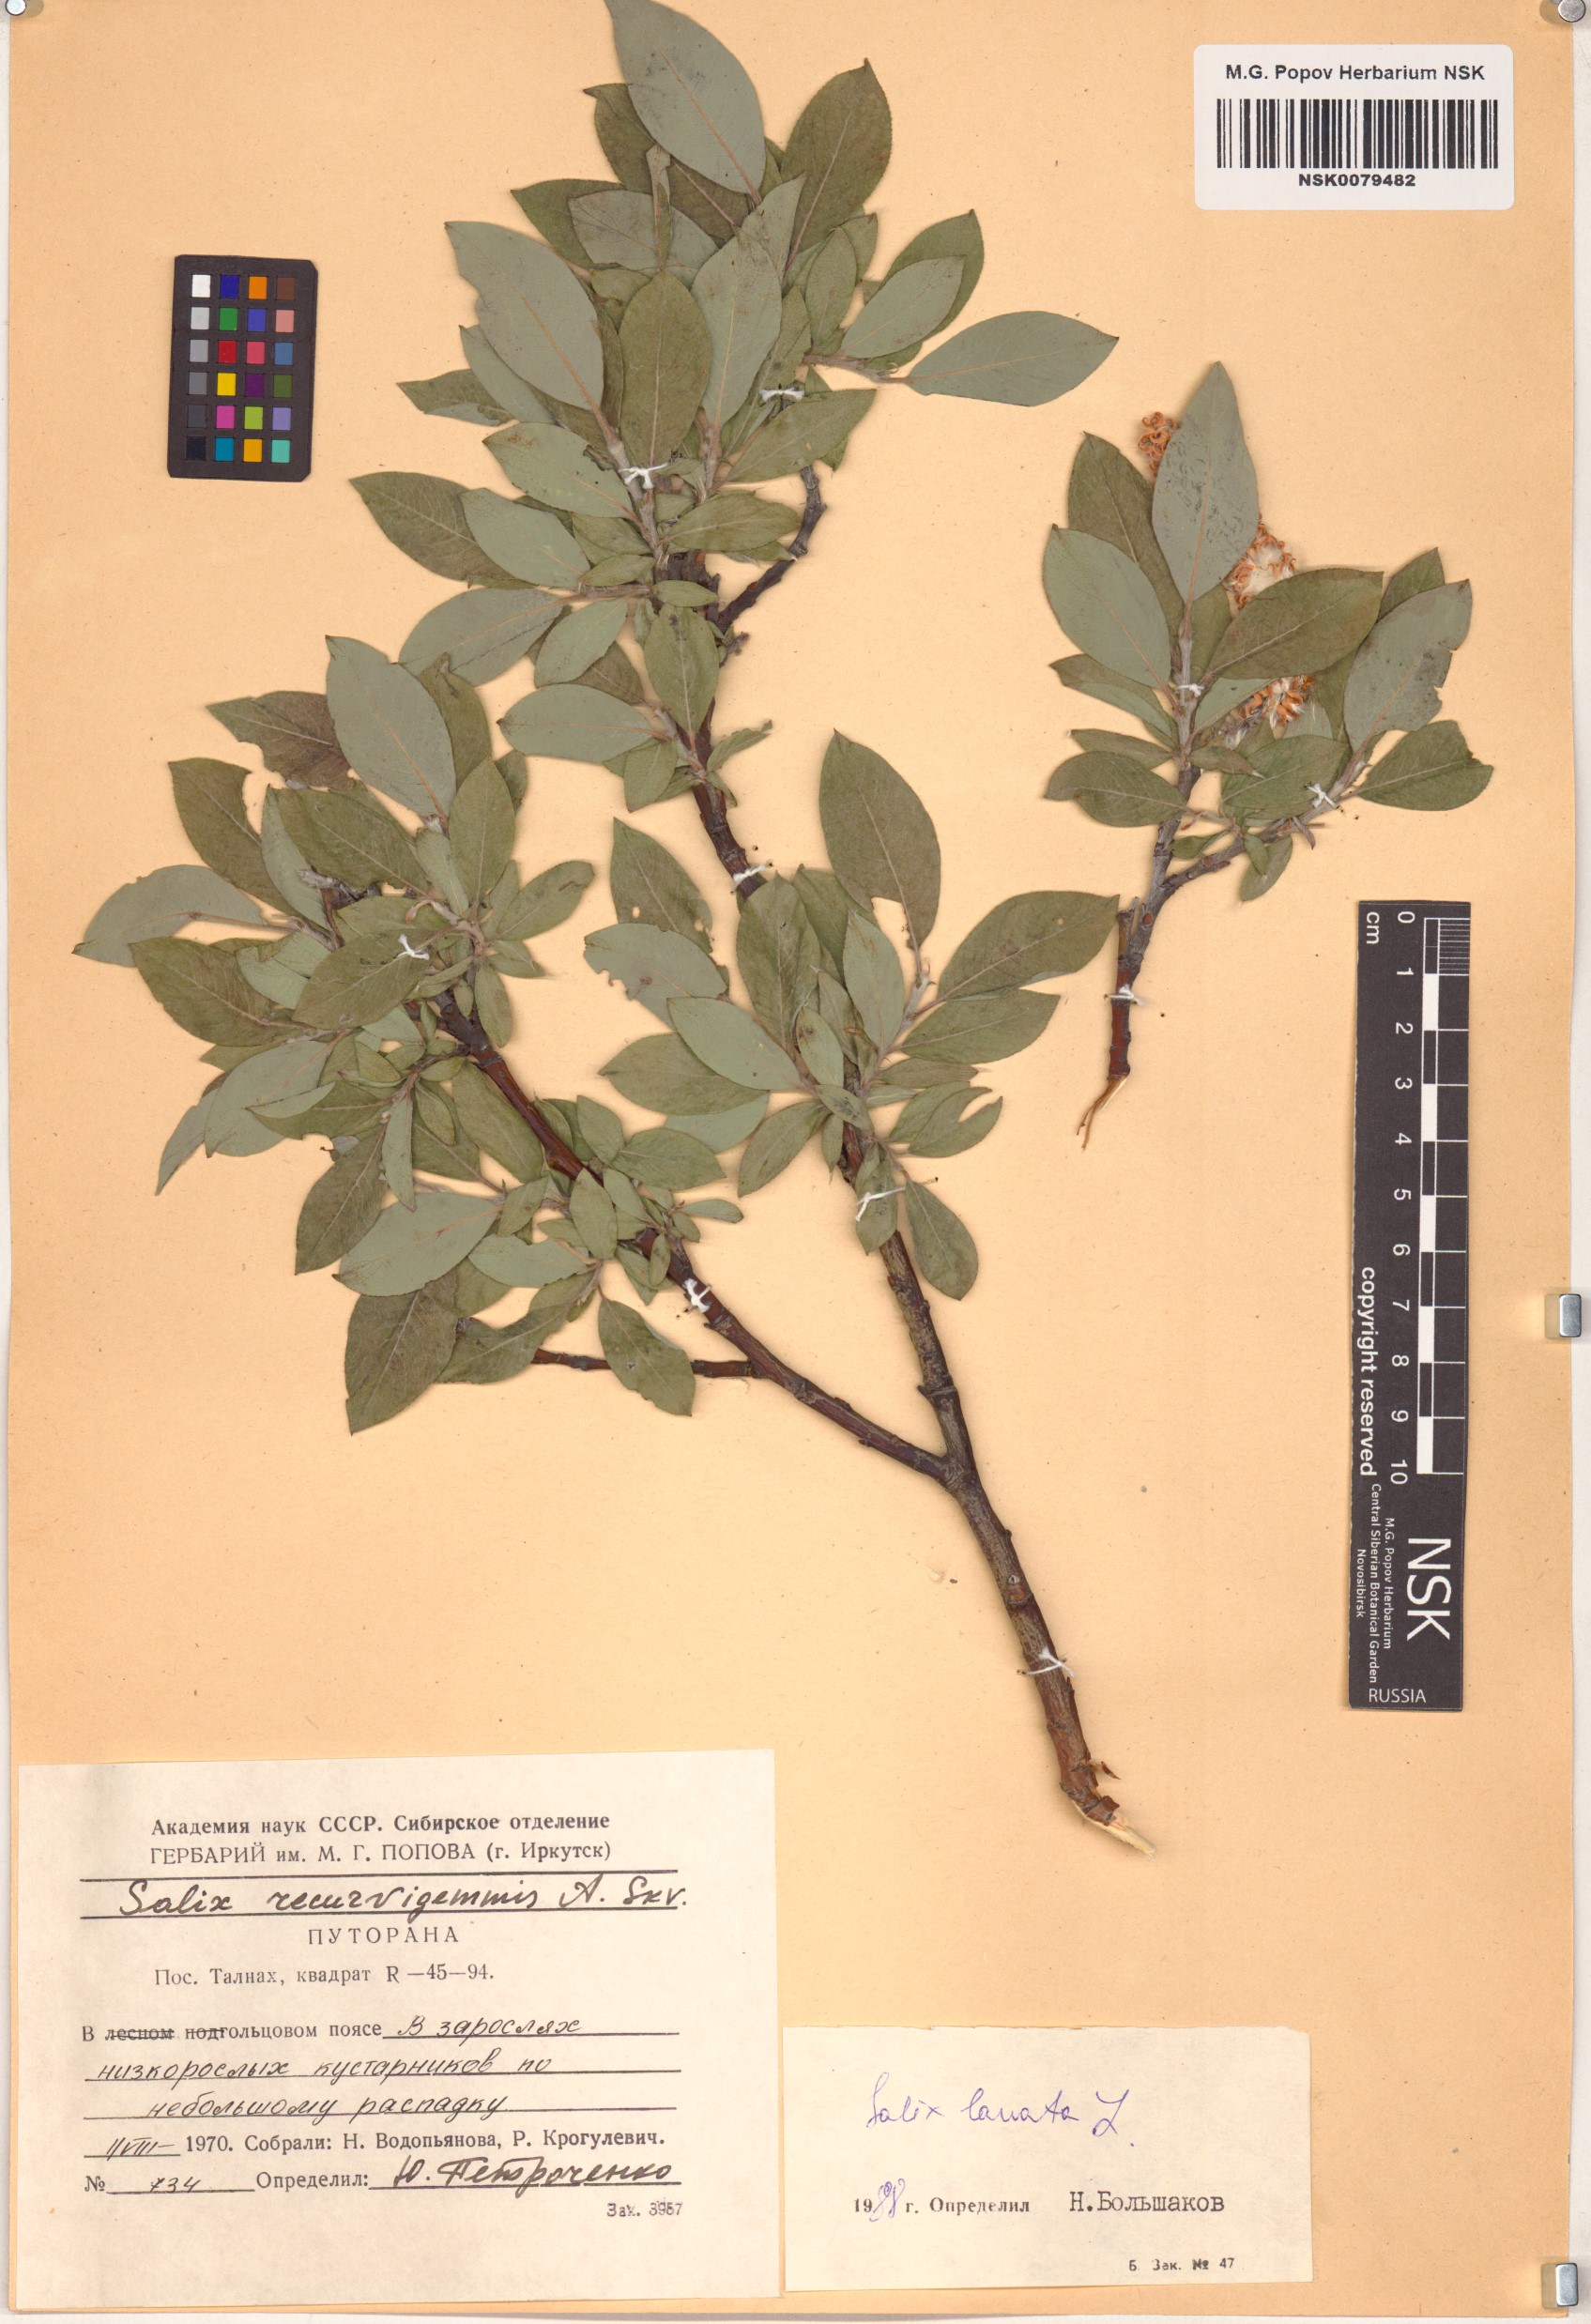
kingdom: Plantae
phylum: Tracheophyta
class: Magnoliopsida
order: Malpighiales
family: Salicaceae
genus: Salix
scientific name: Salix lanata
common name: Woolly willow
